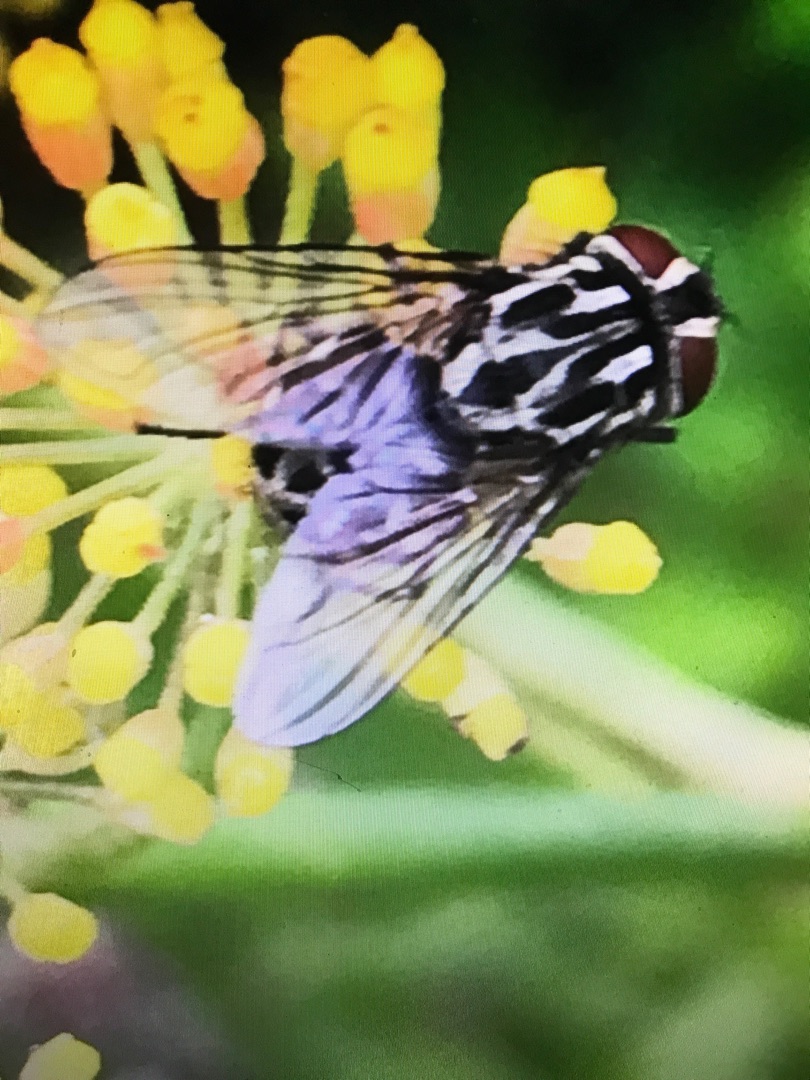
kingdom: Animalia
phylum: Arthropoda
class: Insecta
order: Diptera
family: Muscidae
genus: Graphomya
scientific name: Graphomya maculata
